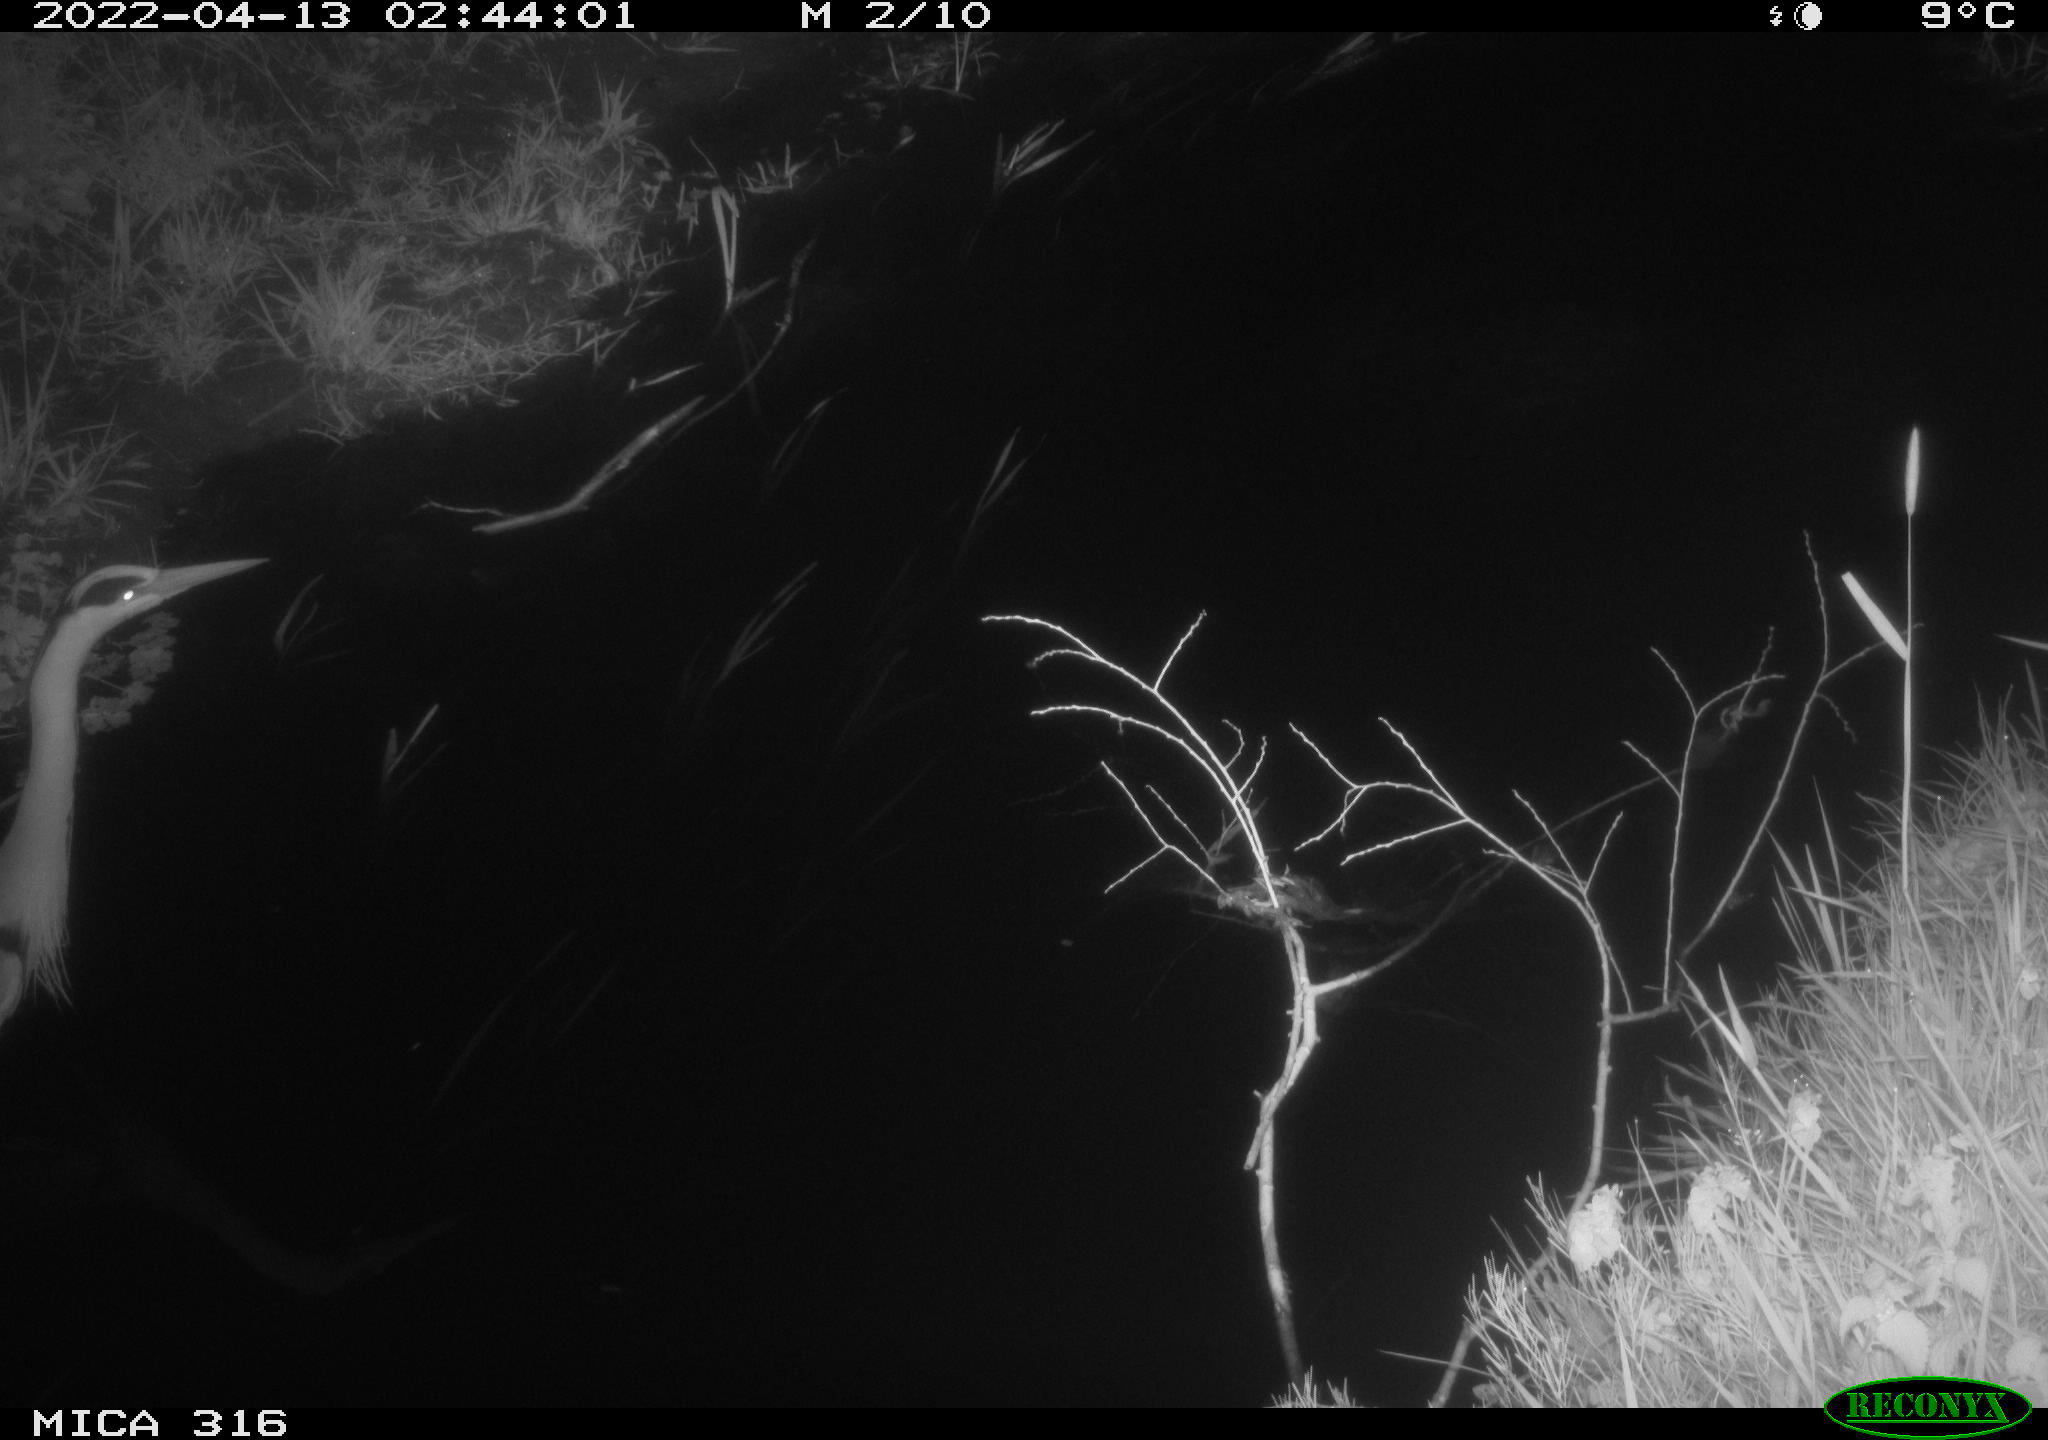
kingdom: Animalia
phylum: Chordata
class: Aves
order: Pelecaniformes
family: Ardeidae
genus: Ardea
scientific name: Ardea
